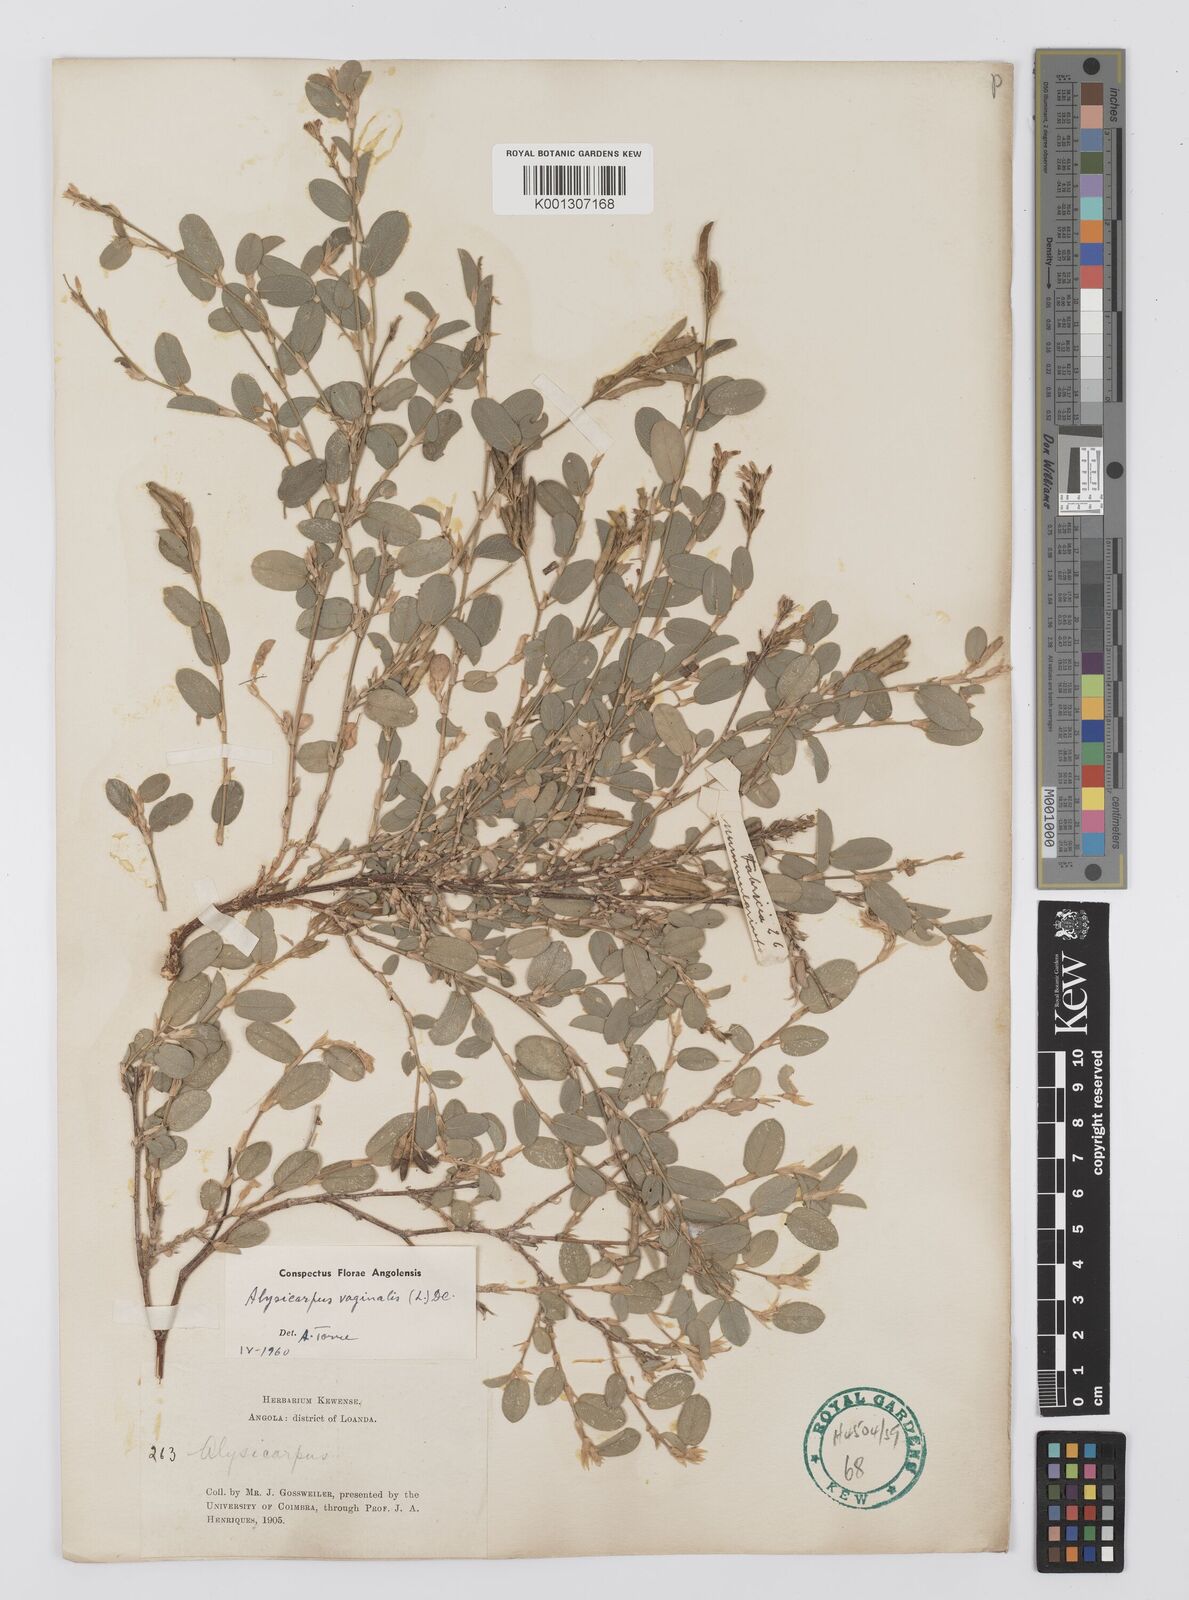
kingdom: Plantae
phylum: Tracheophyta
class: Magnoliopsida
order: Fabales
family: Fabaceae
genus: Alysicarpus
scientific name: Alysicarpus vaginalis
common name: White moneywort
